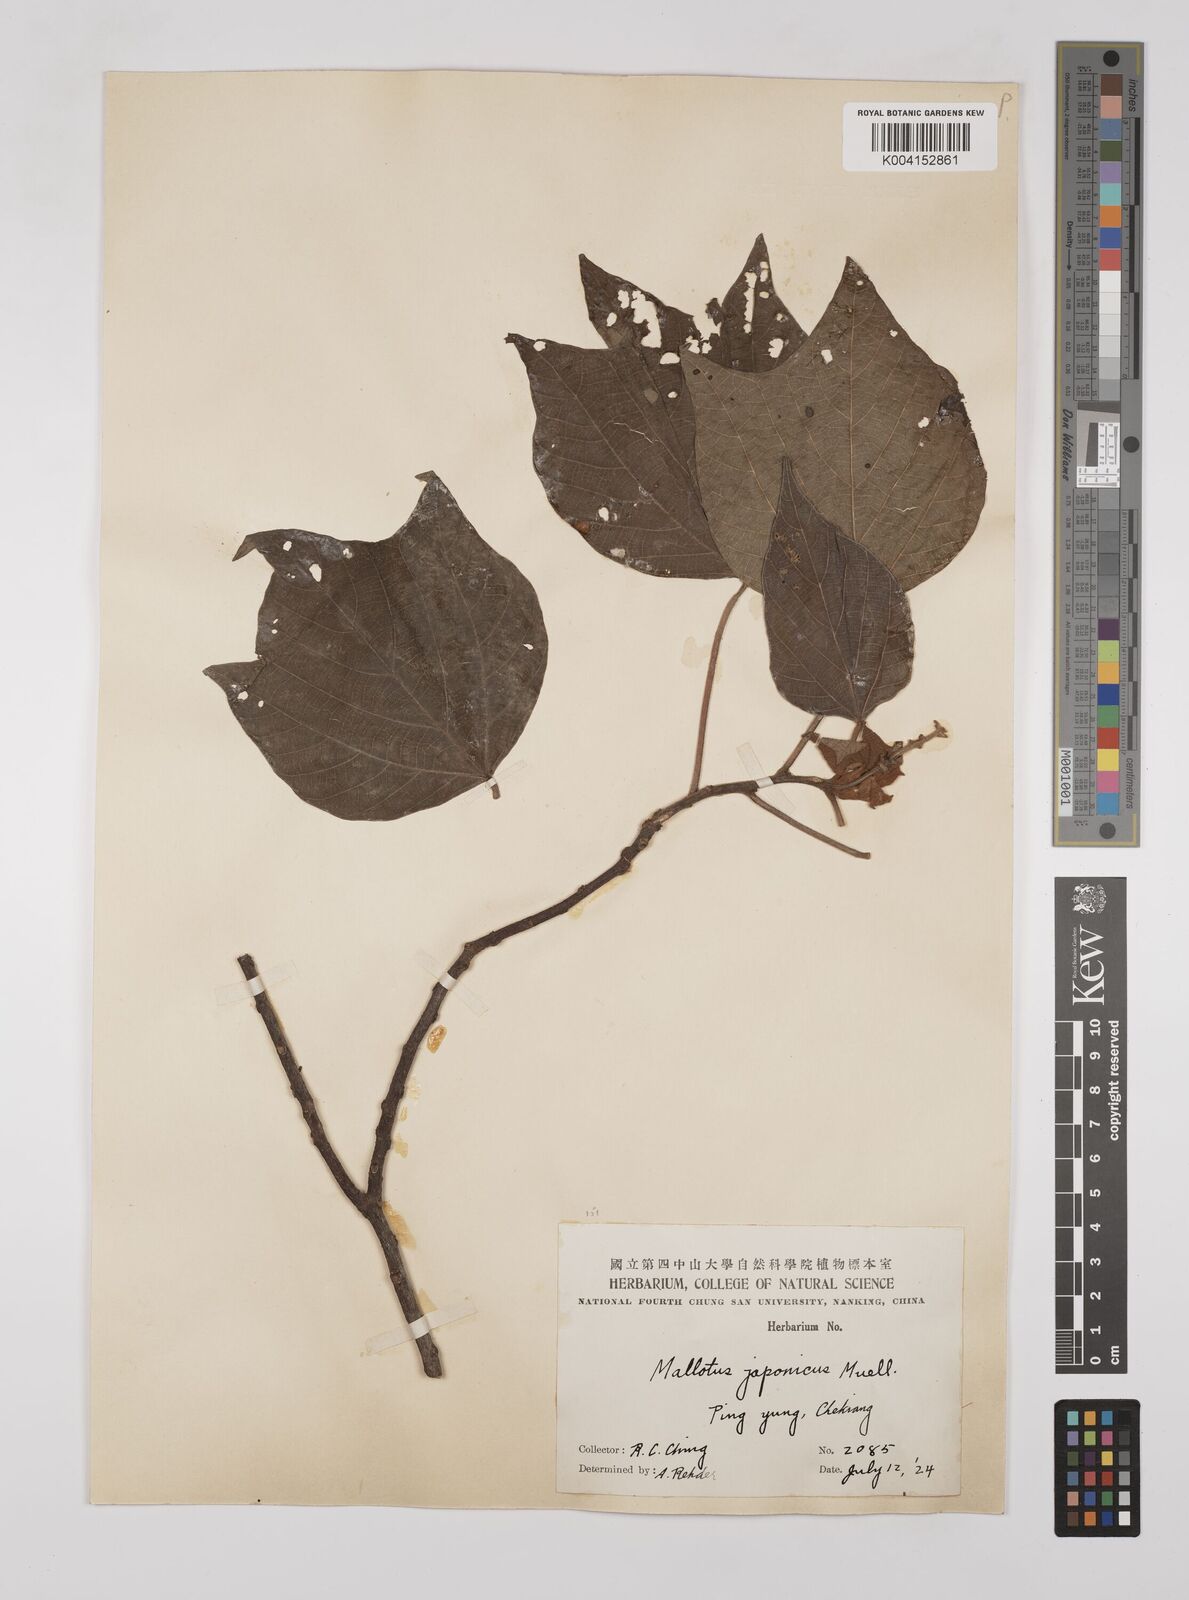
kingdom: Plantae
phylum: Tracheophyta
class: Magnoliopsida
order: Malpighiales
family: Euphorbiaceae
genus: Mallotus
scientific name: Mallotus lianus
